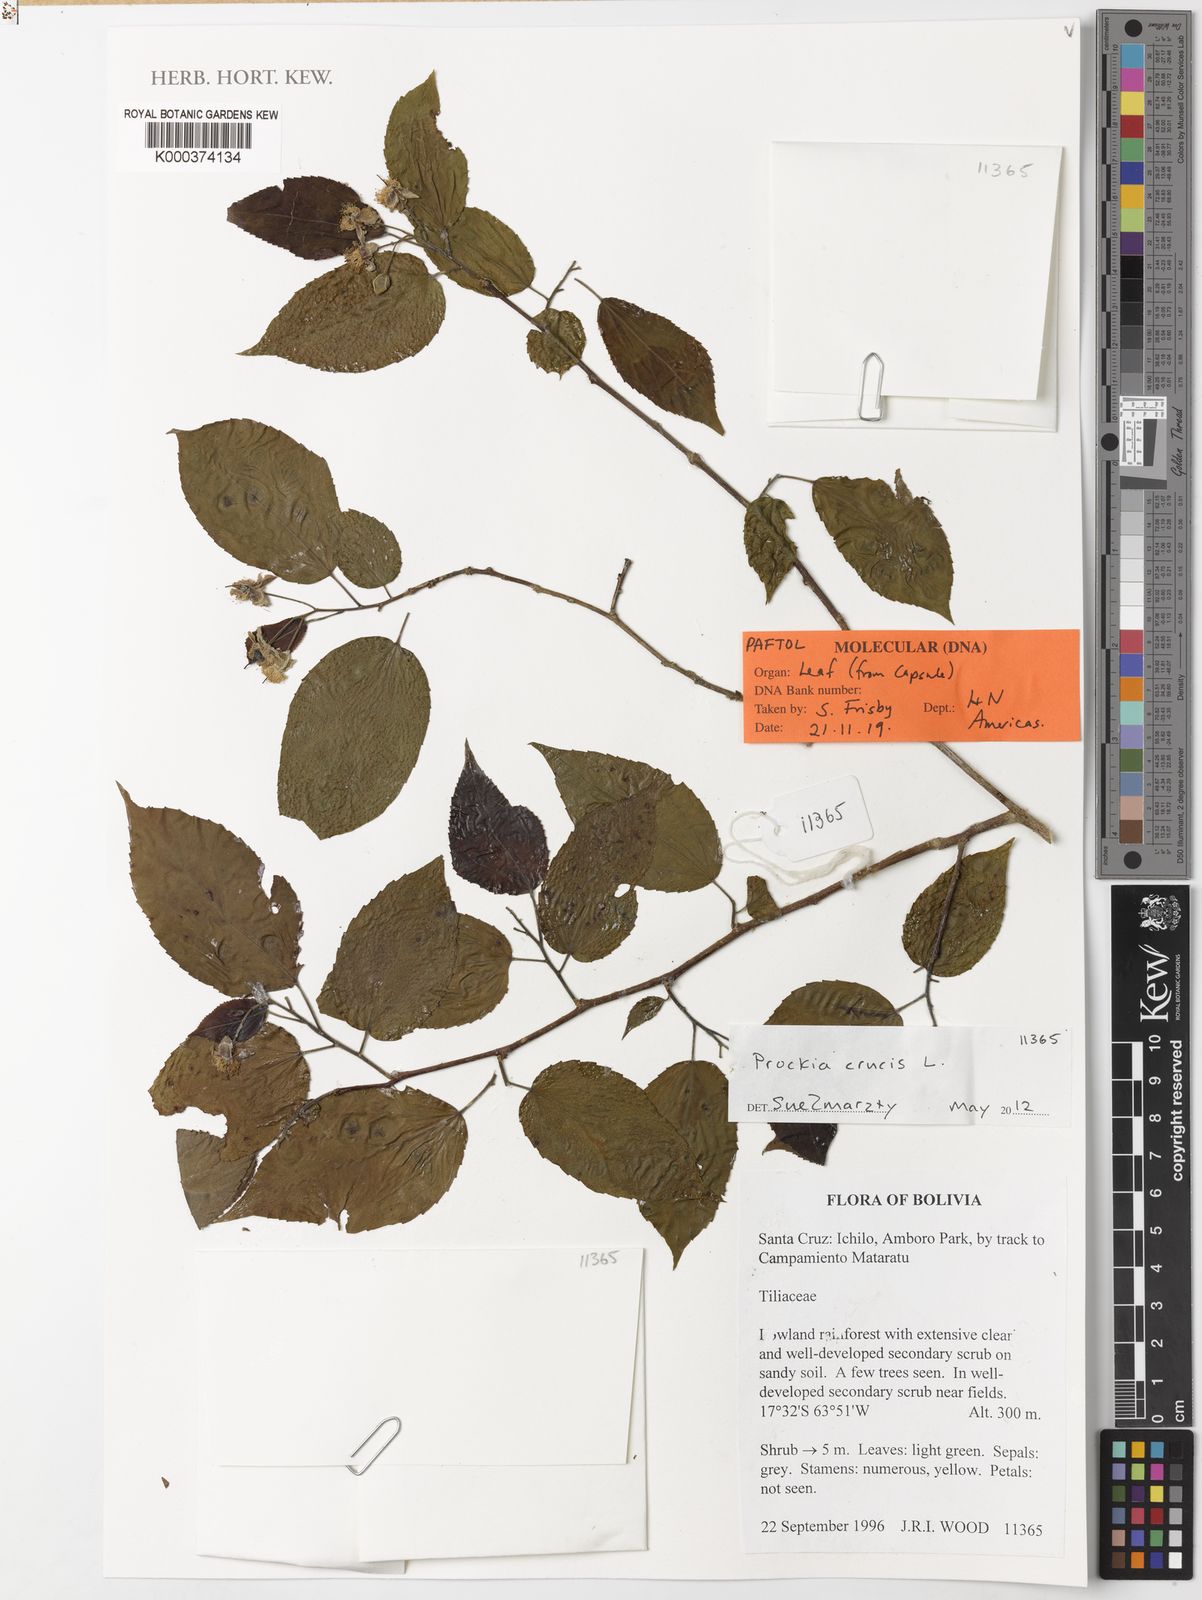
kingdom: Plantae
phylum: Tracheophyta
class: Magnoliopsida
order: Malpighiales
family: Salicaceae
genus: Prockia
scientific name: Prockia crucis
